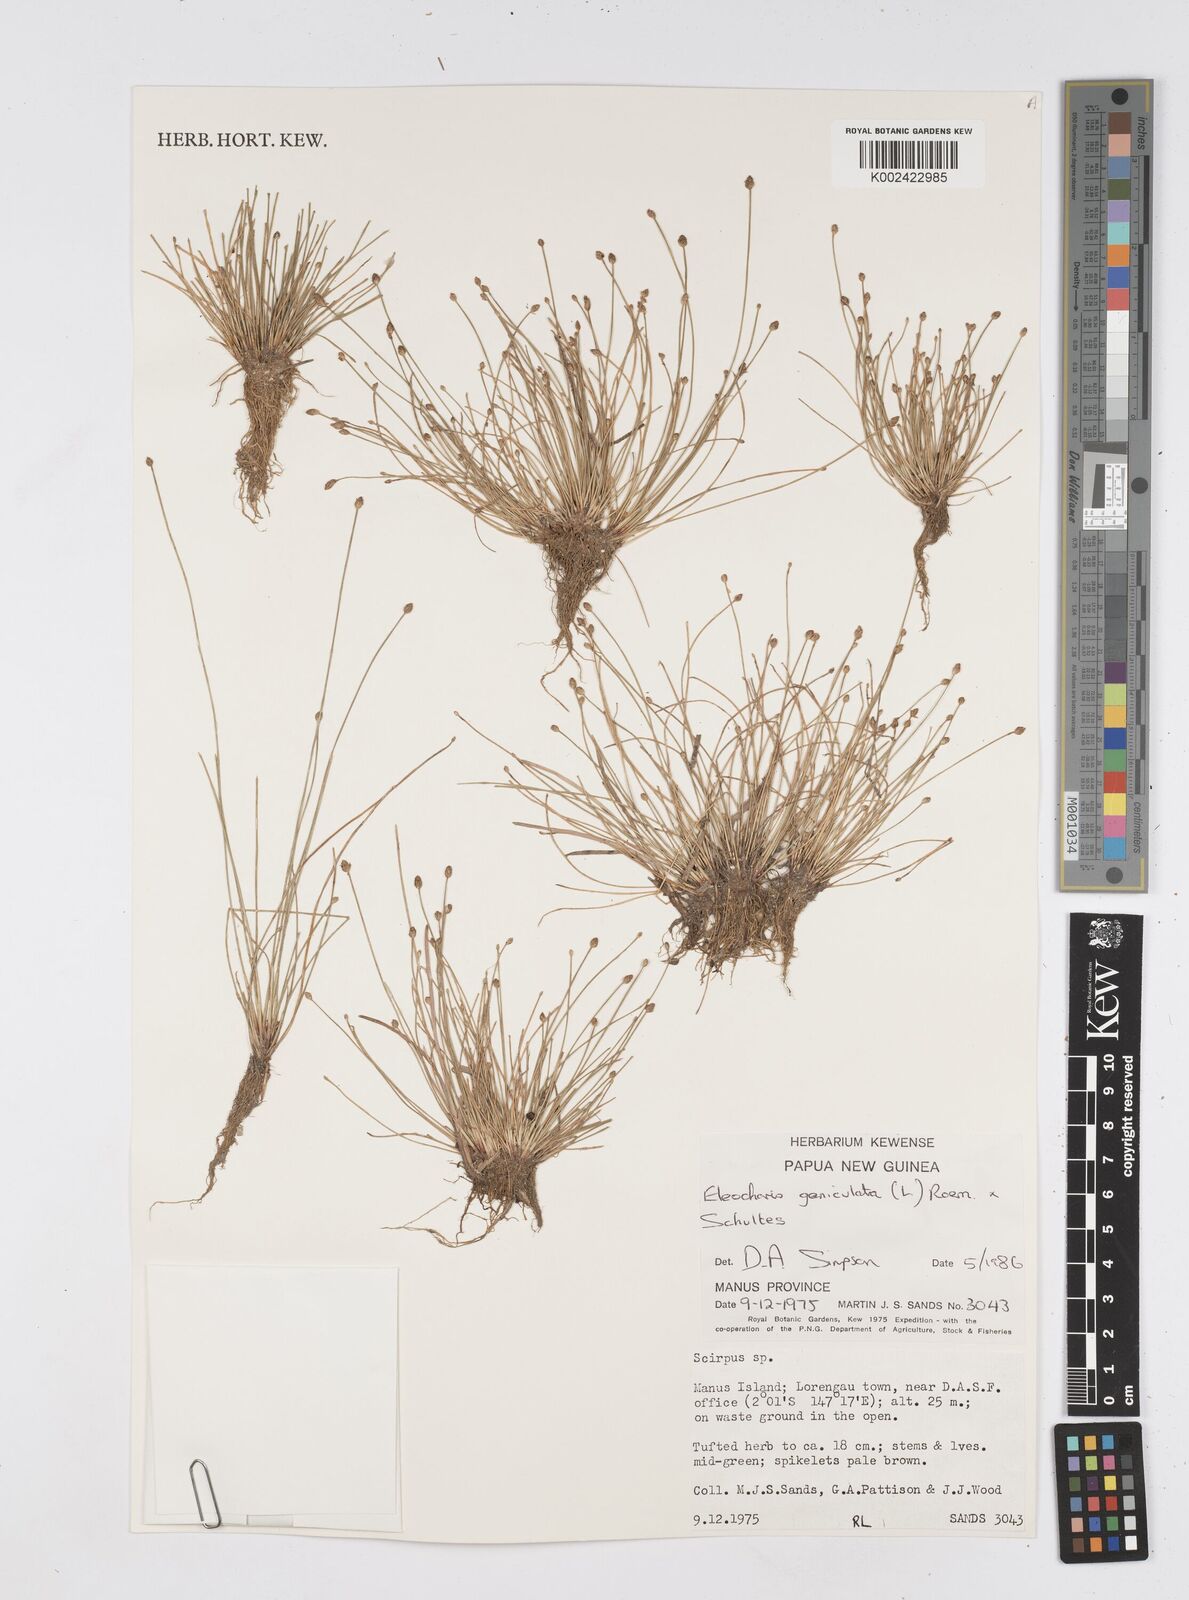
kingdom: Plantae
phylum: Tracheophyta
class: Liliopsida
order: Poales
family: Cyperaceae
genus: Eleocharis
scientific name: Eleocharis geniculata
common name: Canada spikesedge
